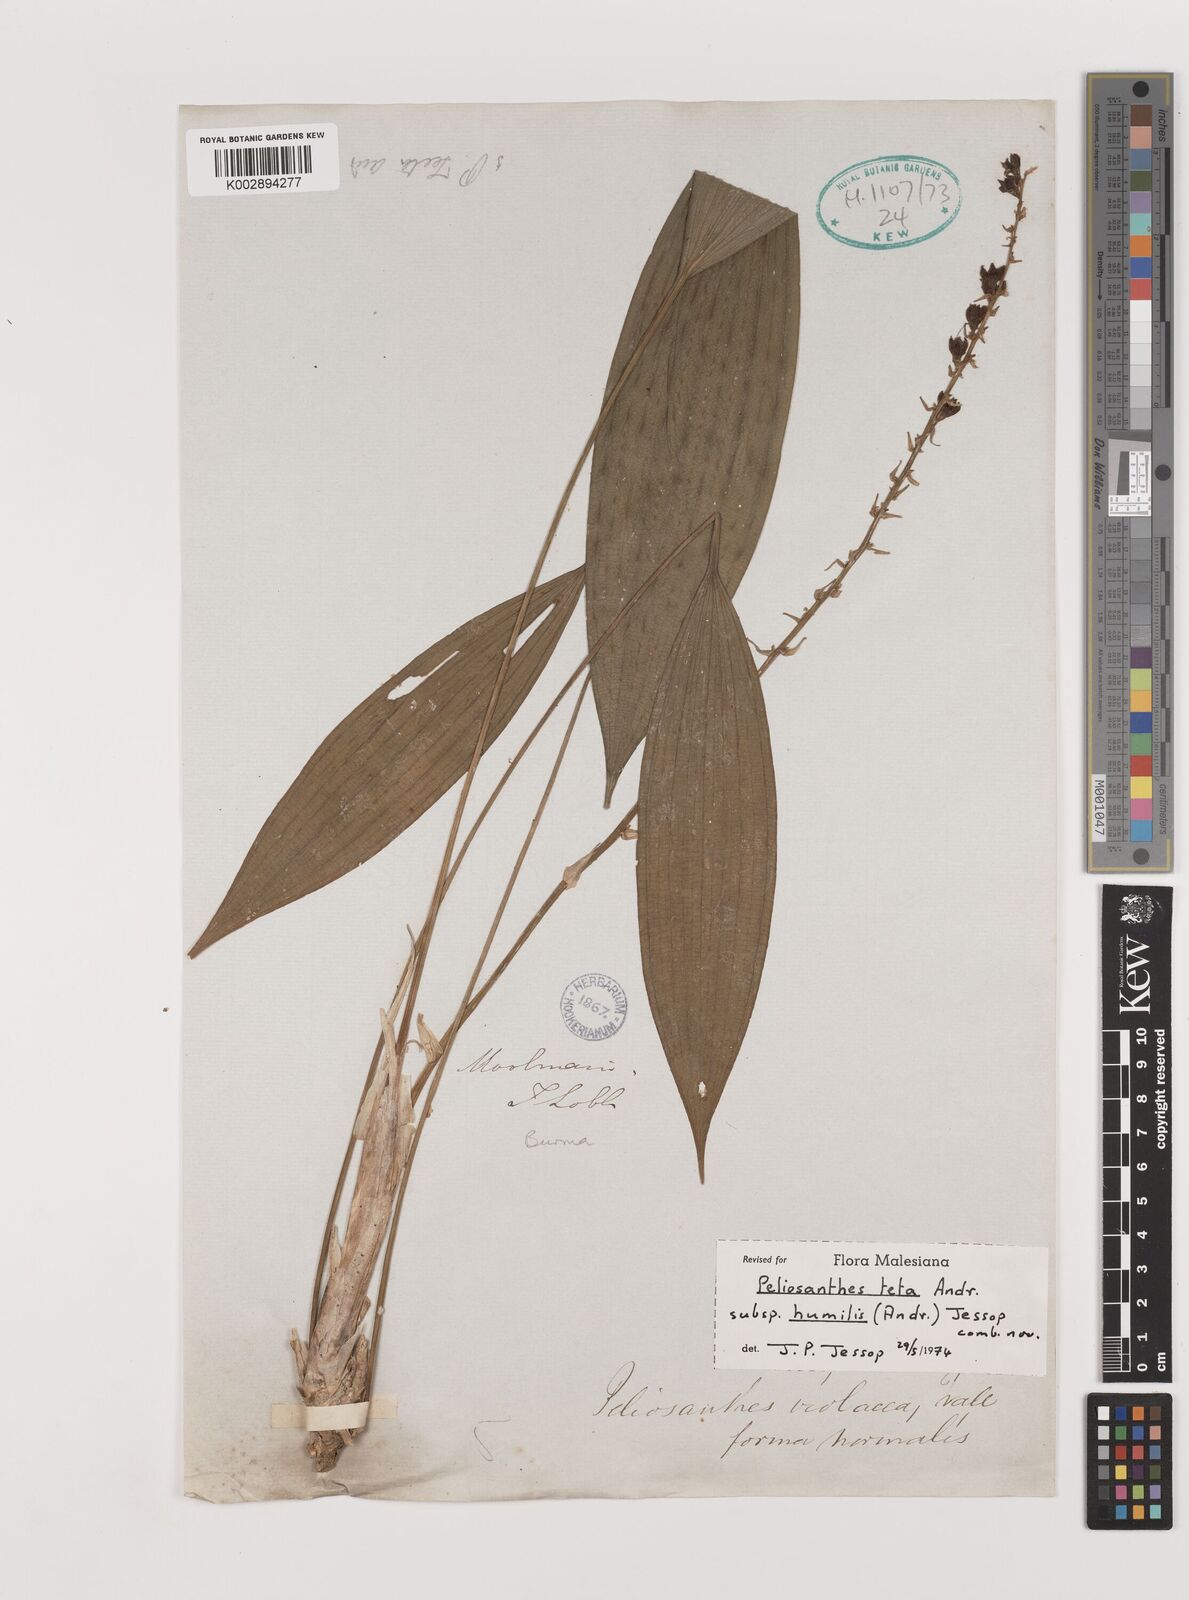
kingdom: Plantae
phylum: Tracheophyta
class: Liliopsida
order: Asparagales
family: Asparagaceae
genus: Peliosanthes
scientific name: Peliosanthes teta
